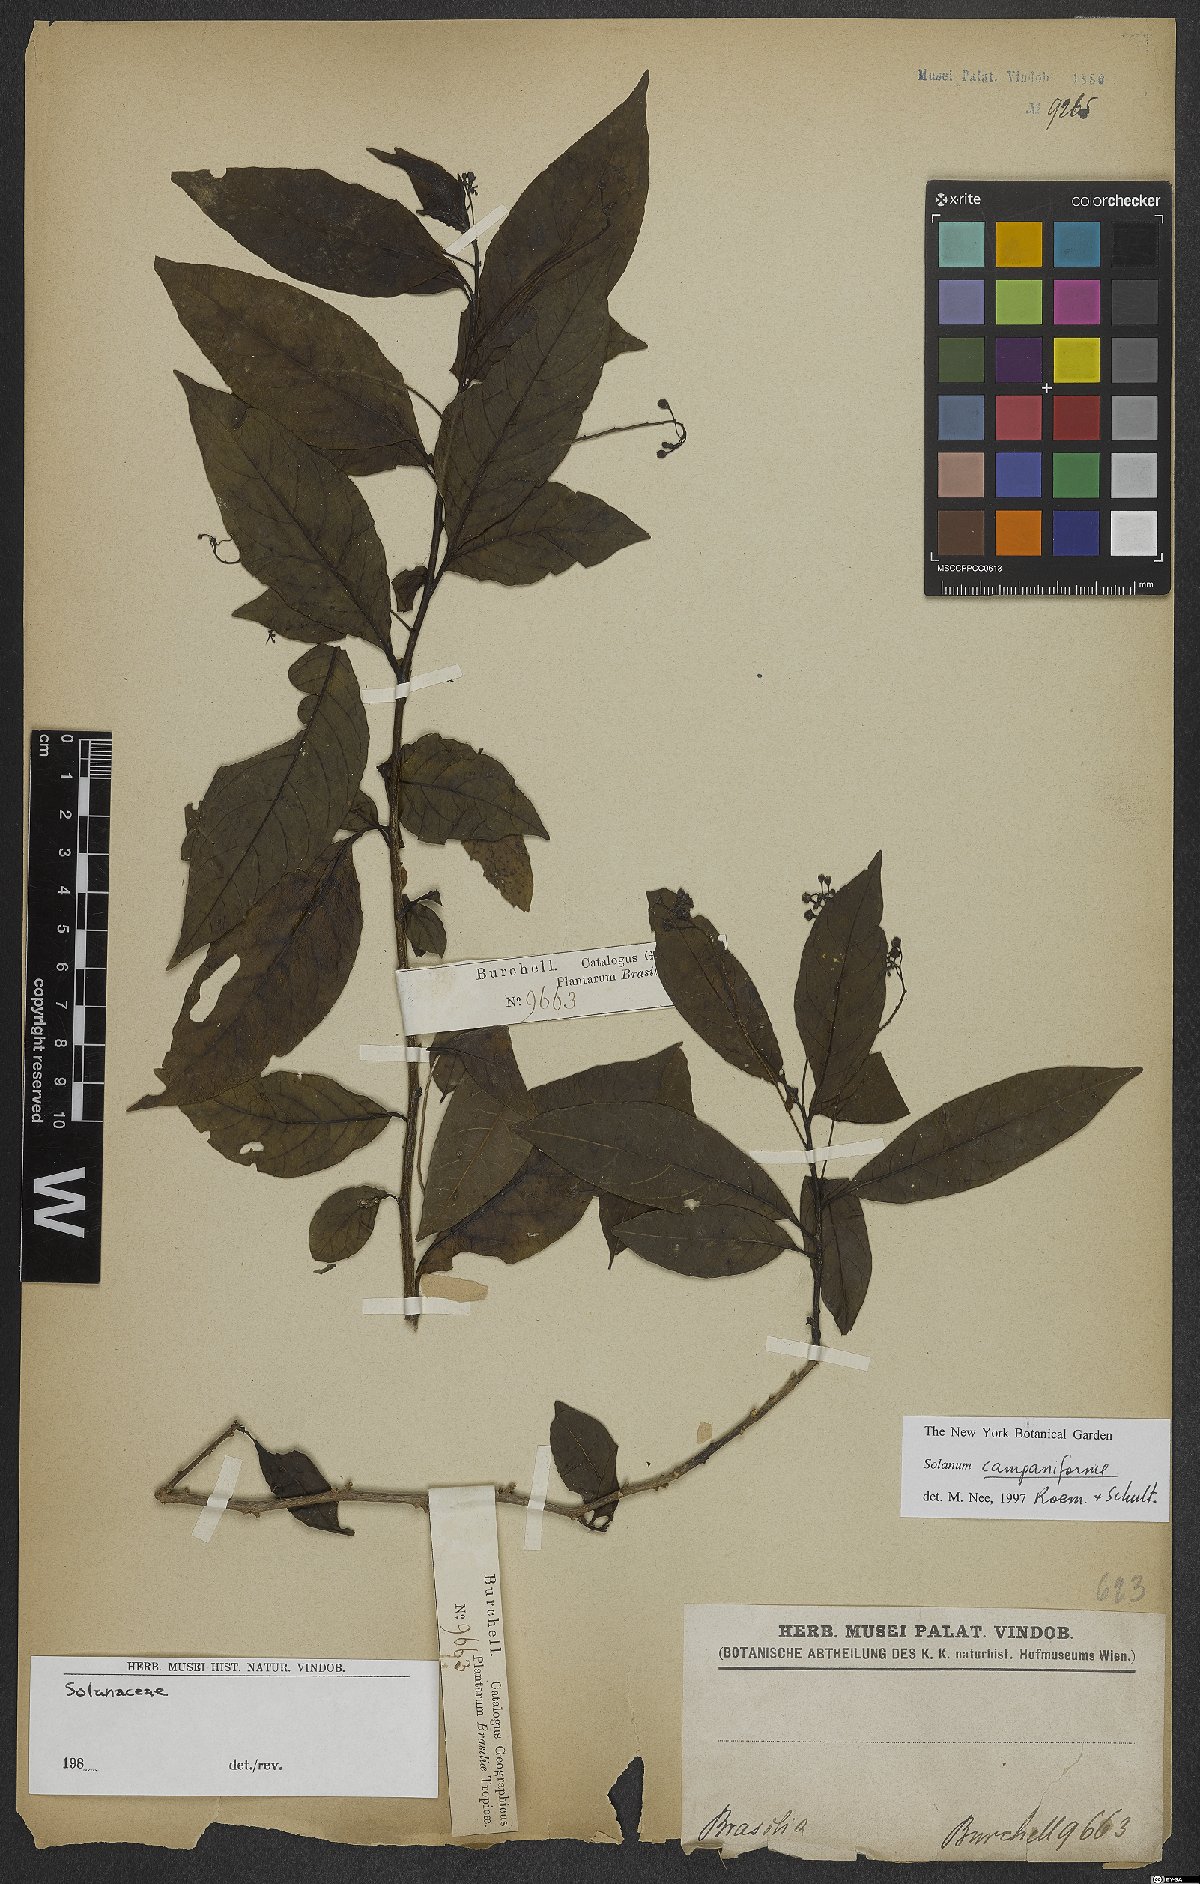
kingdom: Plantae
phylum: Tracheophyta
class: Magnoliopsida
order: Solanales
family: Solanaceae
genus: Solanum
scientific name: Solanum campaniforme
